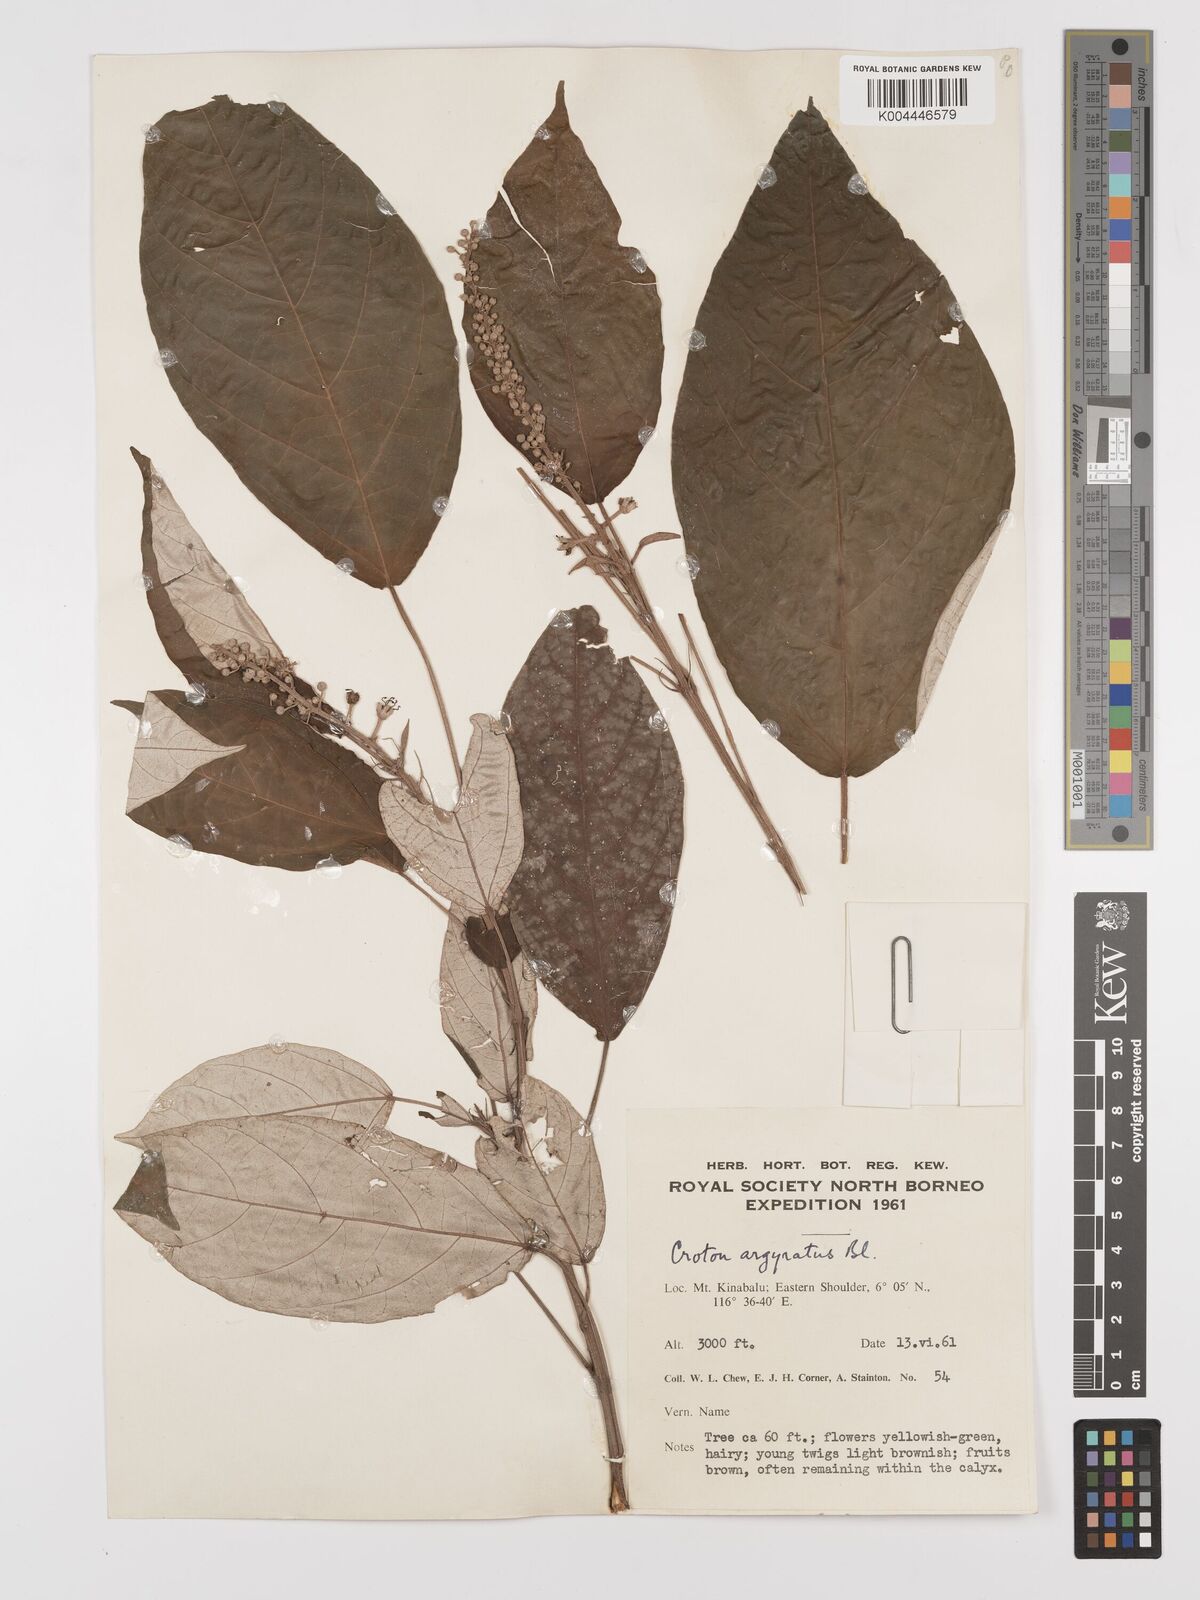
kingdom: Plantae
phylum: Tracheophyta
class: Magnoliopsida
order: Malpighiales
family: Euphorbiaceae
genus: Croton
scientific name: Croton argyratus
